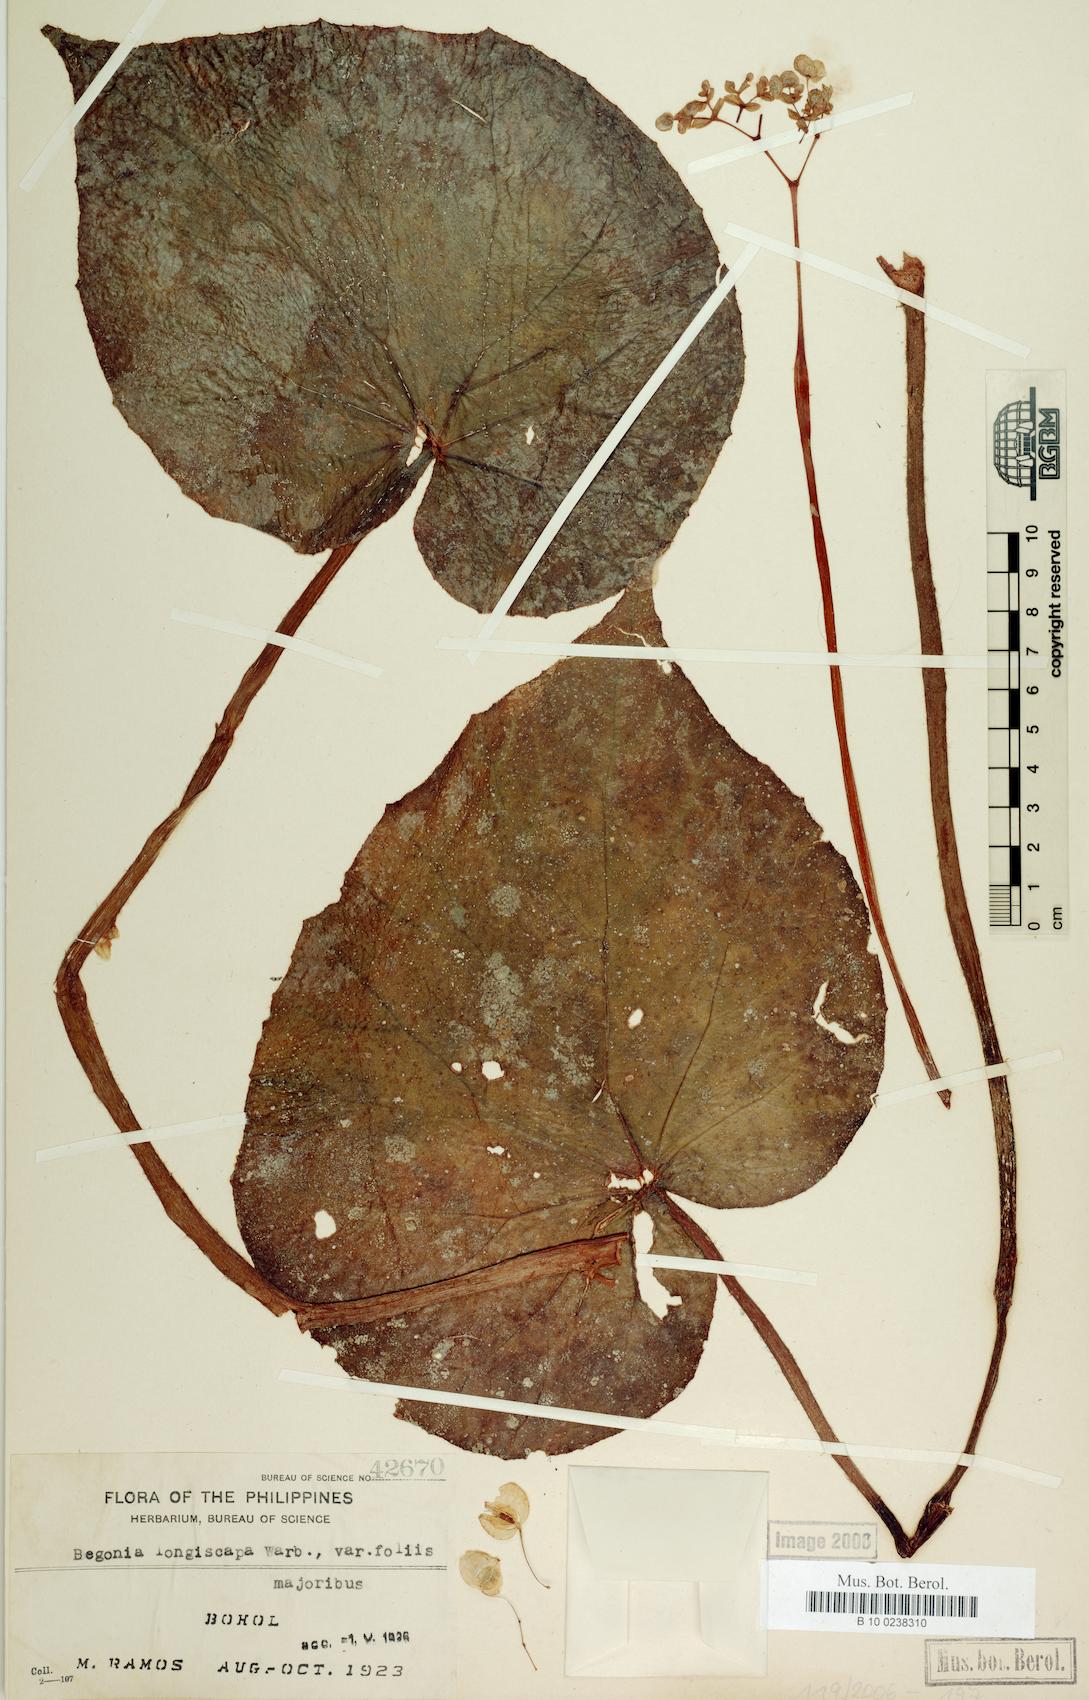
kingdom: Plantae
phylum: Tracheophyta
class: Magnoliopsida
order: Cucurbitales
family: Begoniaceae
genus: Begonia
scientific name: Begonia longiscapa
